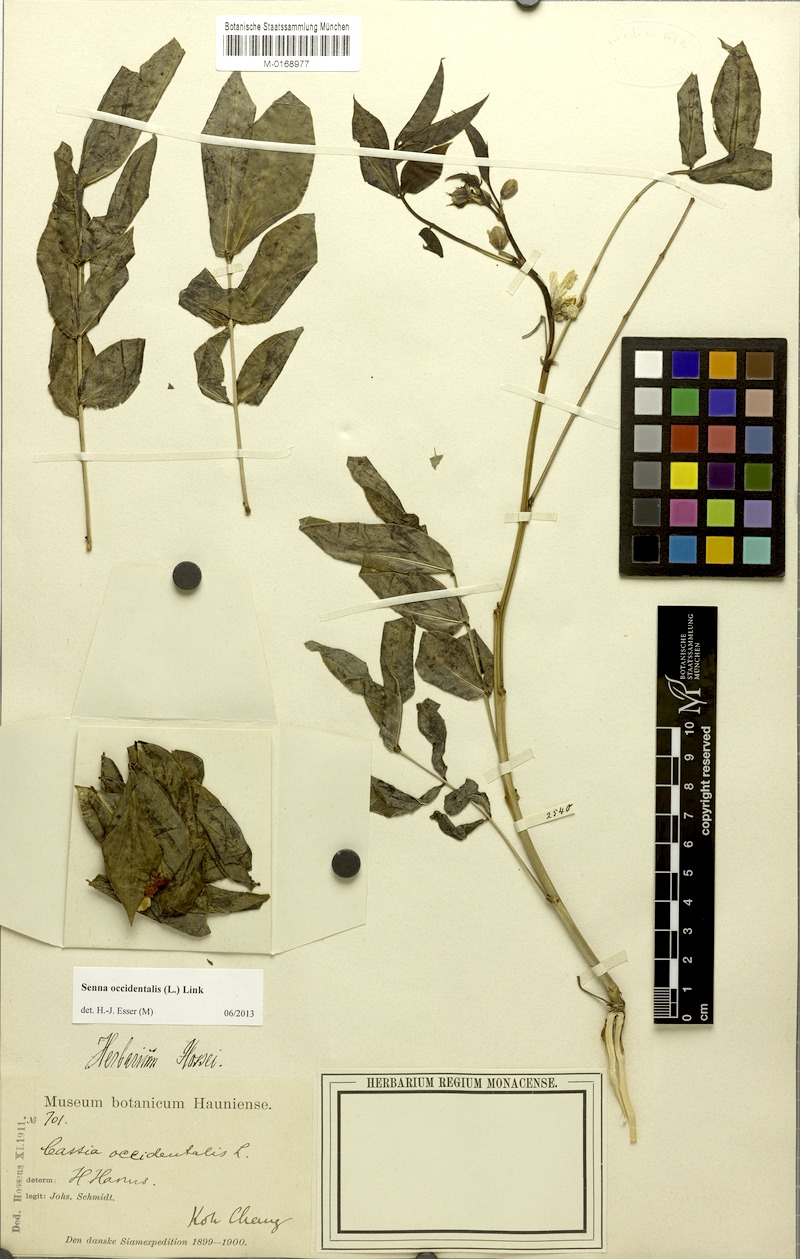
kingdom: Plantae
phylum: Tracheophyta
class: Magnoliopsida
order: Fabales
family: Fabaceae
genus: Senna
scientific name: Senna occidentalis
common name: Septicweed
